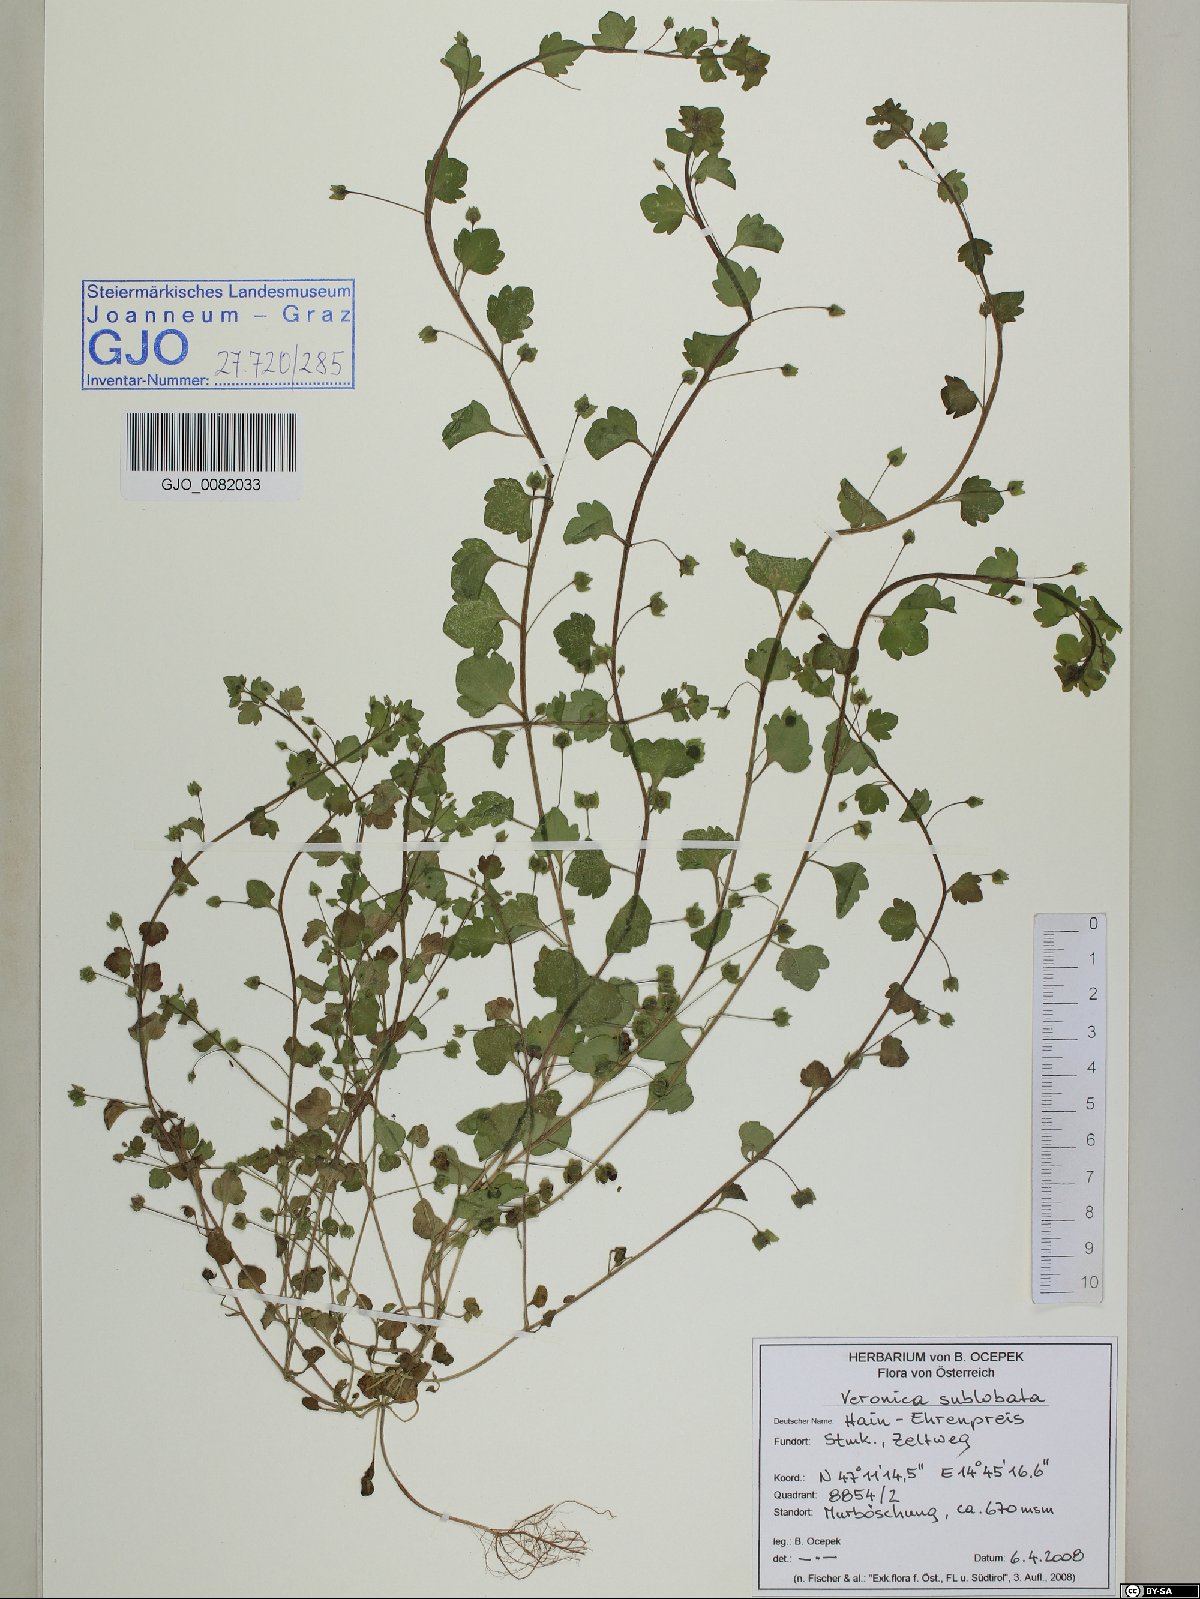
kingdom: Plantae
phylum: Tracheophyta
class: Magnoliopsida
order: Lamiales
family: Plantaginaceae
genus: Veronica
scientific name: Veronica sublobata
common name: False ivy-leaved speedwell
